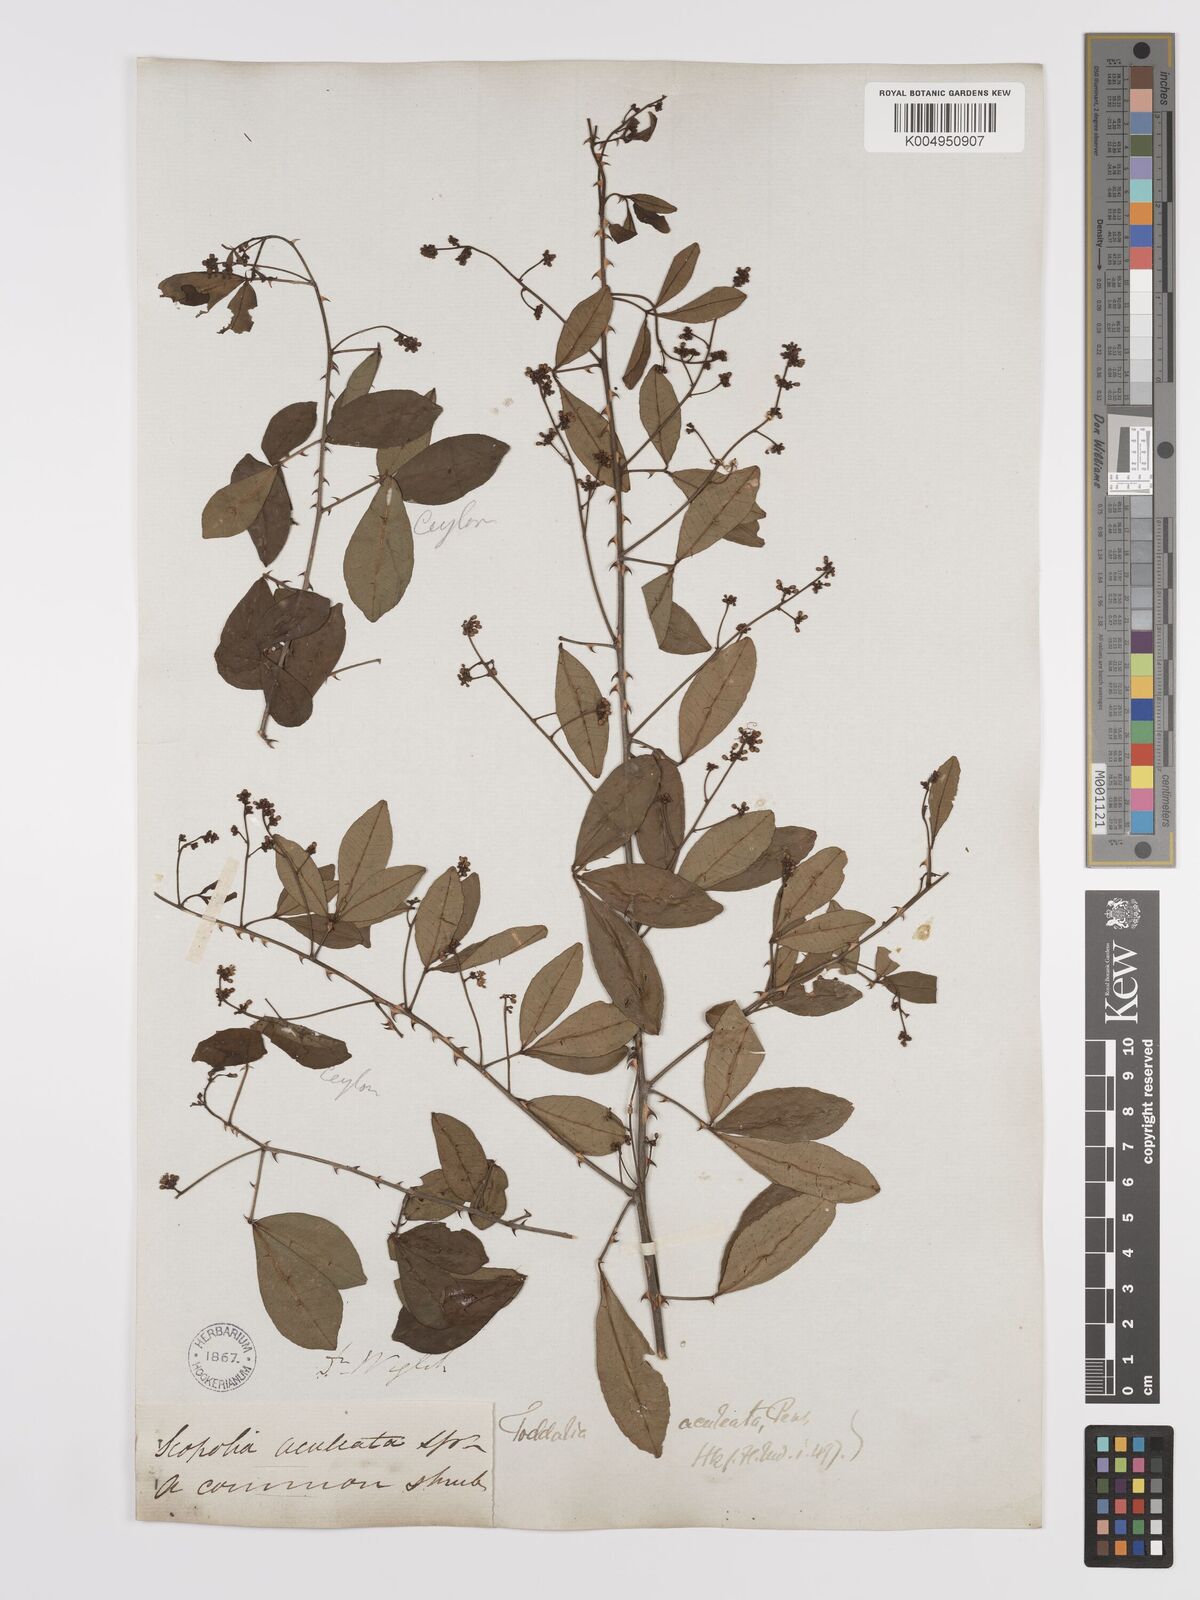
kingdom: Plantae
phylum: Tracheophyta
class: Magnoliopsida
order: Sapindales
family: Rutaceae
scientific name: Rutaceae
